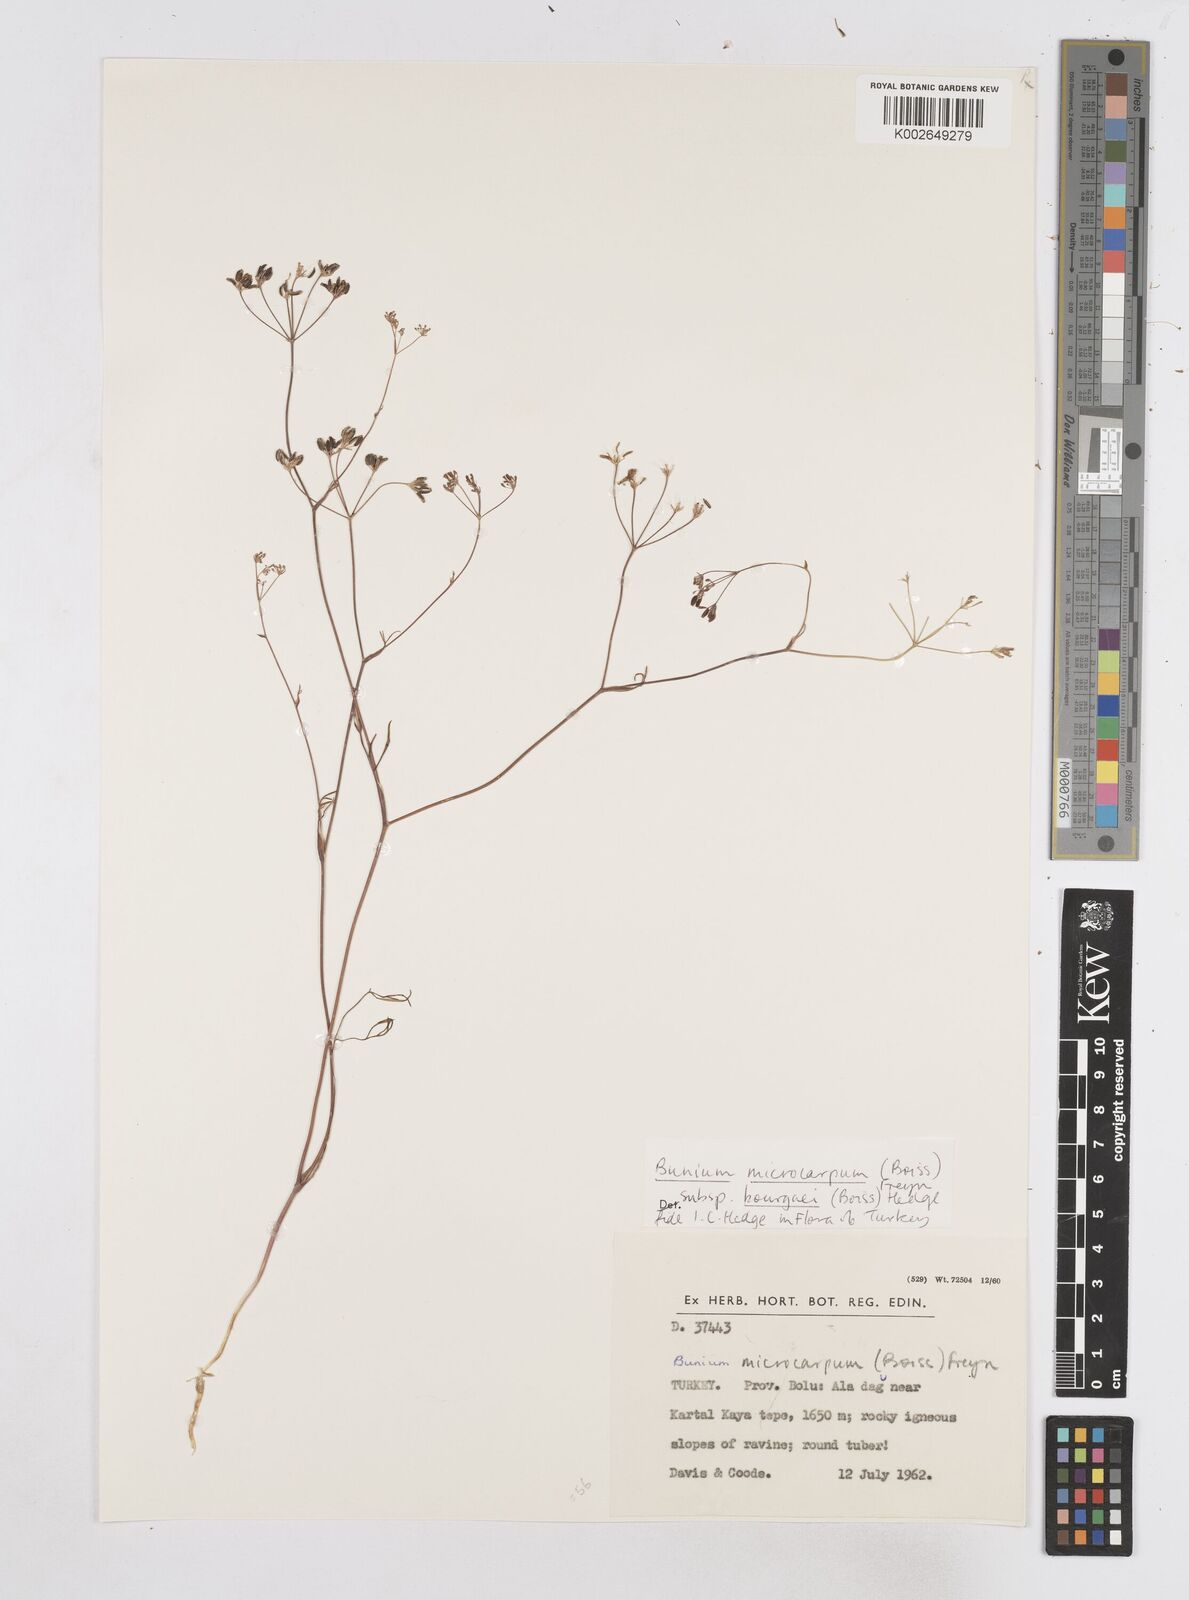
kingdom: Plantae
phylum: Tracheophyta
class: Magnoliopsida
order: Apiales
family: Apiaceae
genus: Bunium
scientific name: Bunium bourgaei
